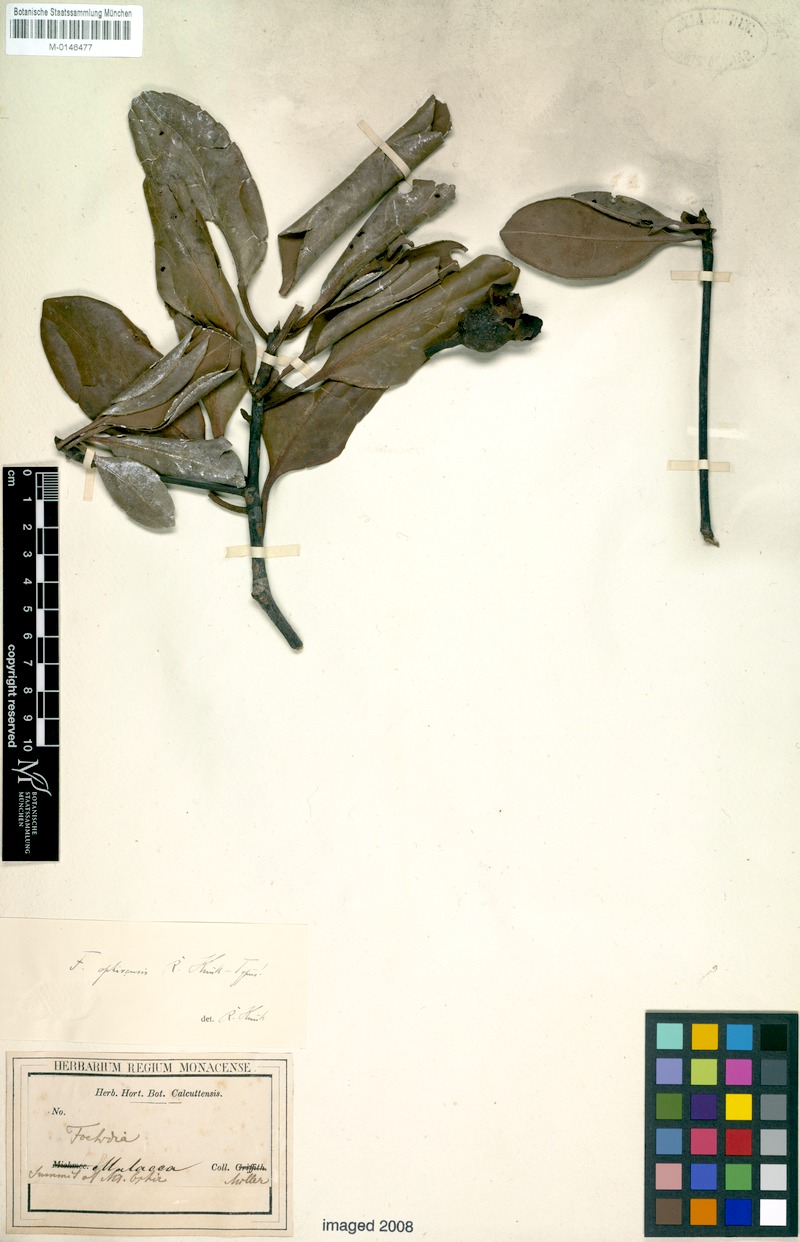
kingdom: Plantae
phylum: Tracheophyta
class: Magnoliopsida
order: Ericales
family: Pentaphylacaceae
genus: Anneslea
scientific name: Anneslea fragrans
